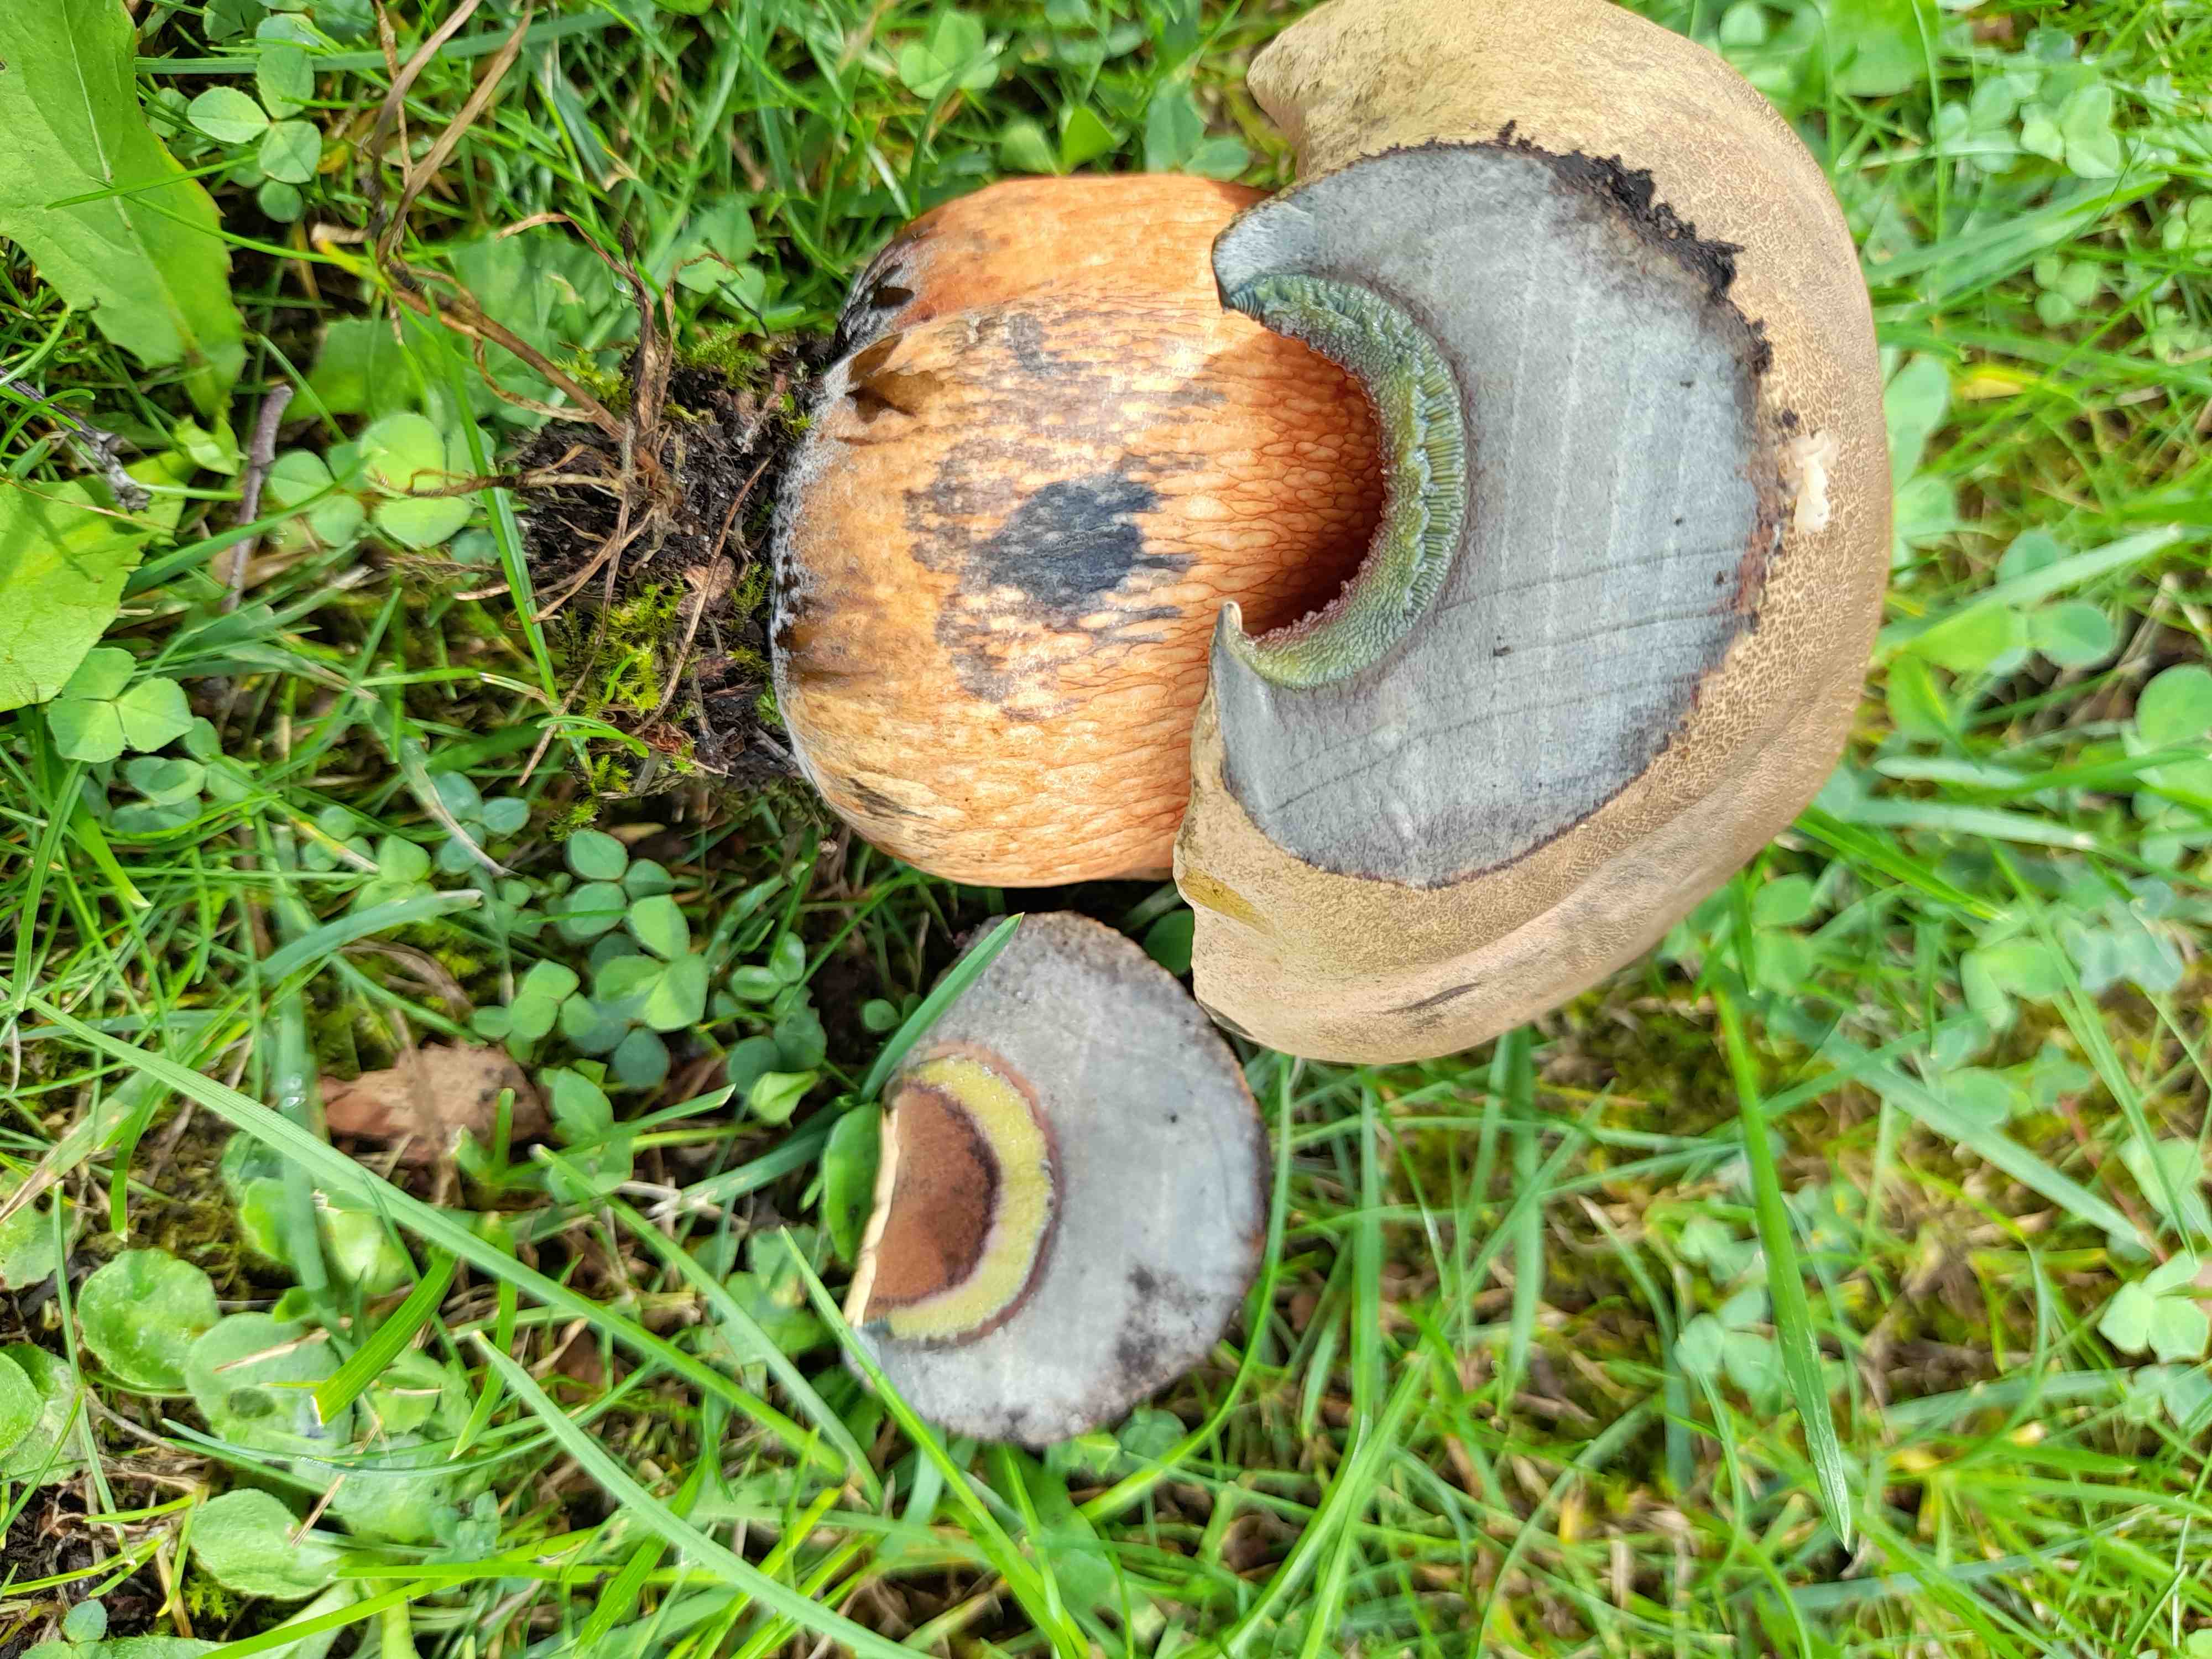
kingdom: Fungi
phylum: Basidiomycota
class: Agaricomycetes
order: Boletales
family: Boletaceae
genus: Suillellus
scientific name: Suillellus luridus
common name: netstokket indigorørhat
